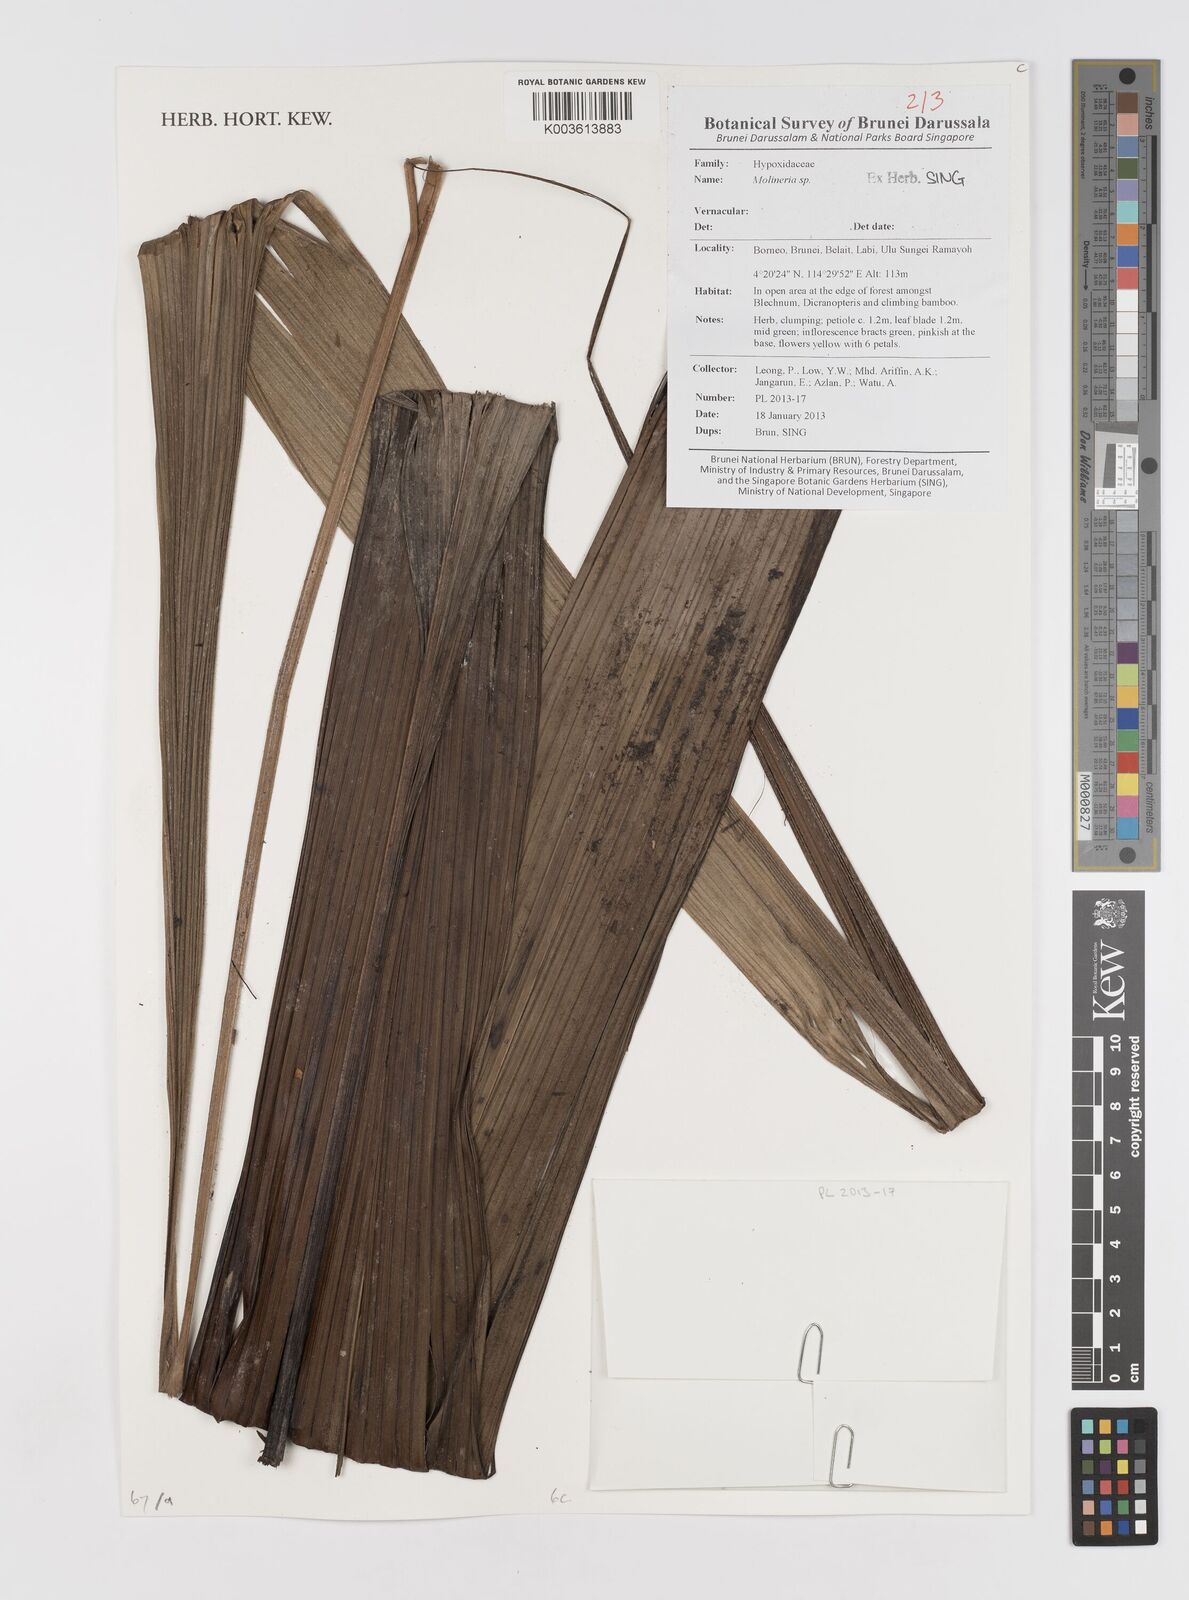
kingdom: Plantae
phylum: Tracheophyta
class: Liliopsida
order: Asparagales
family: Hypoxidaceae
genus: Curculigo
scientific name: Curculigo
